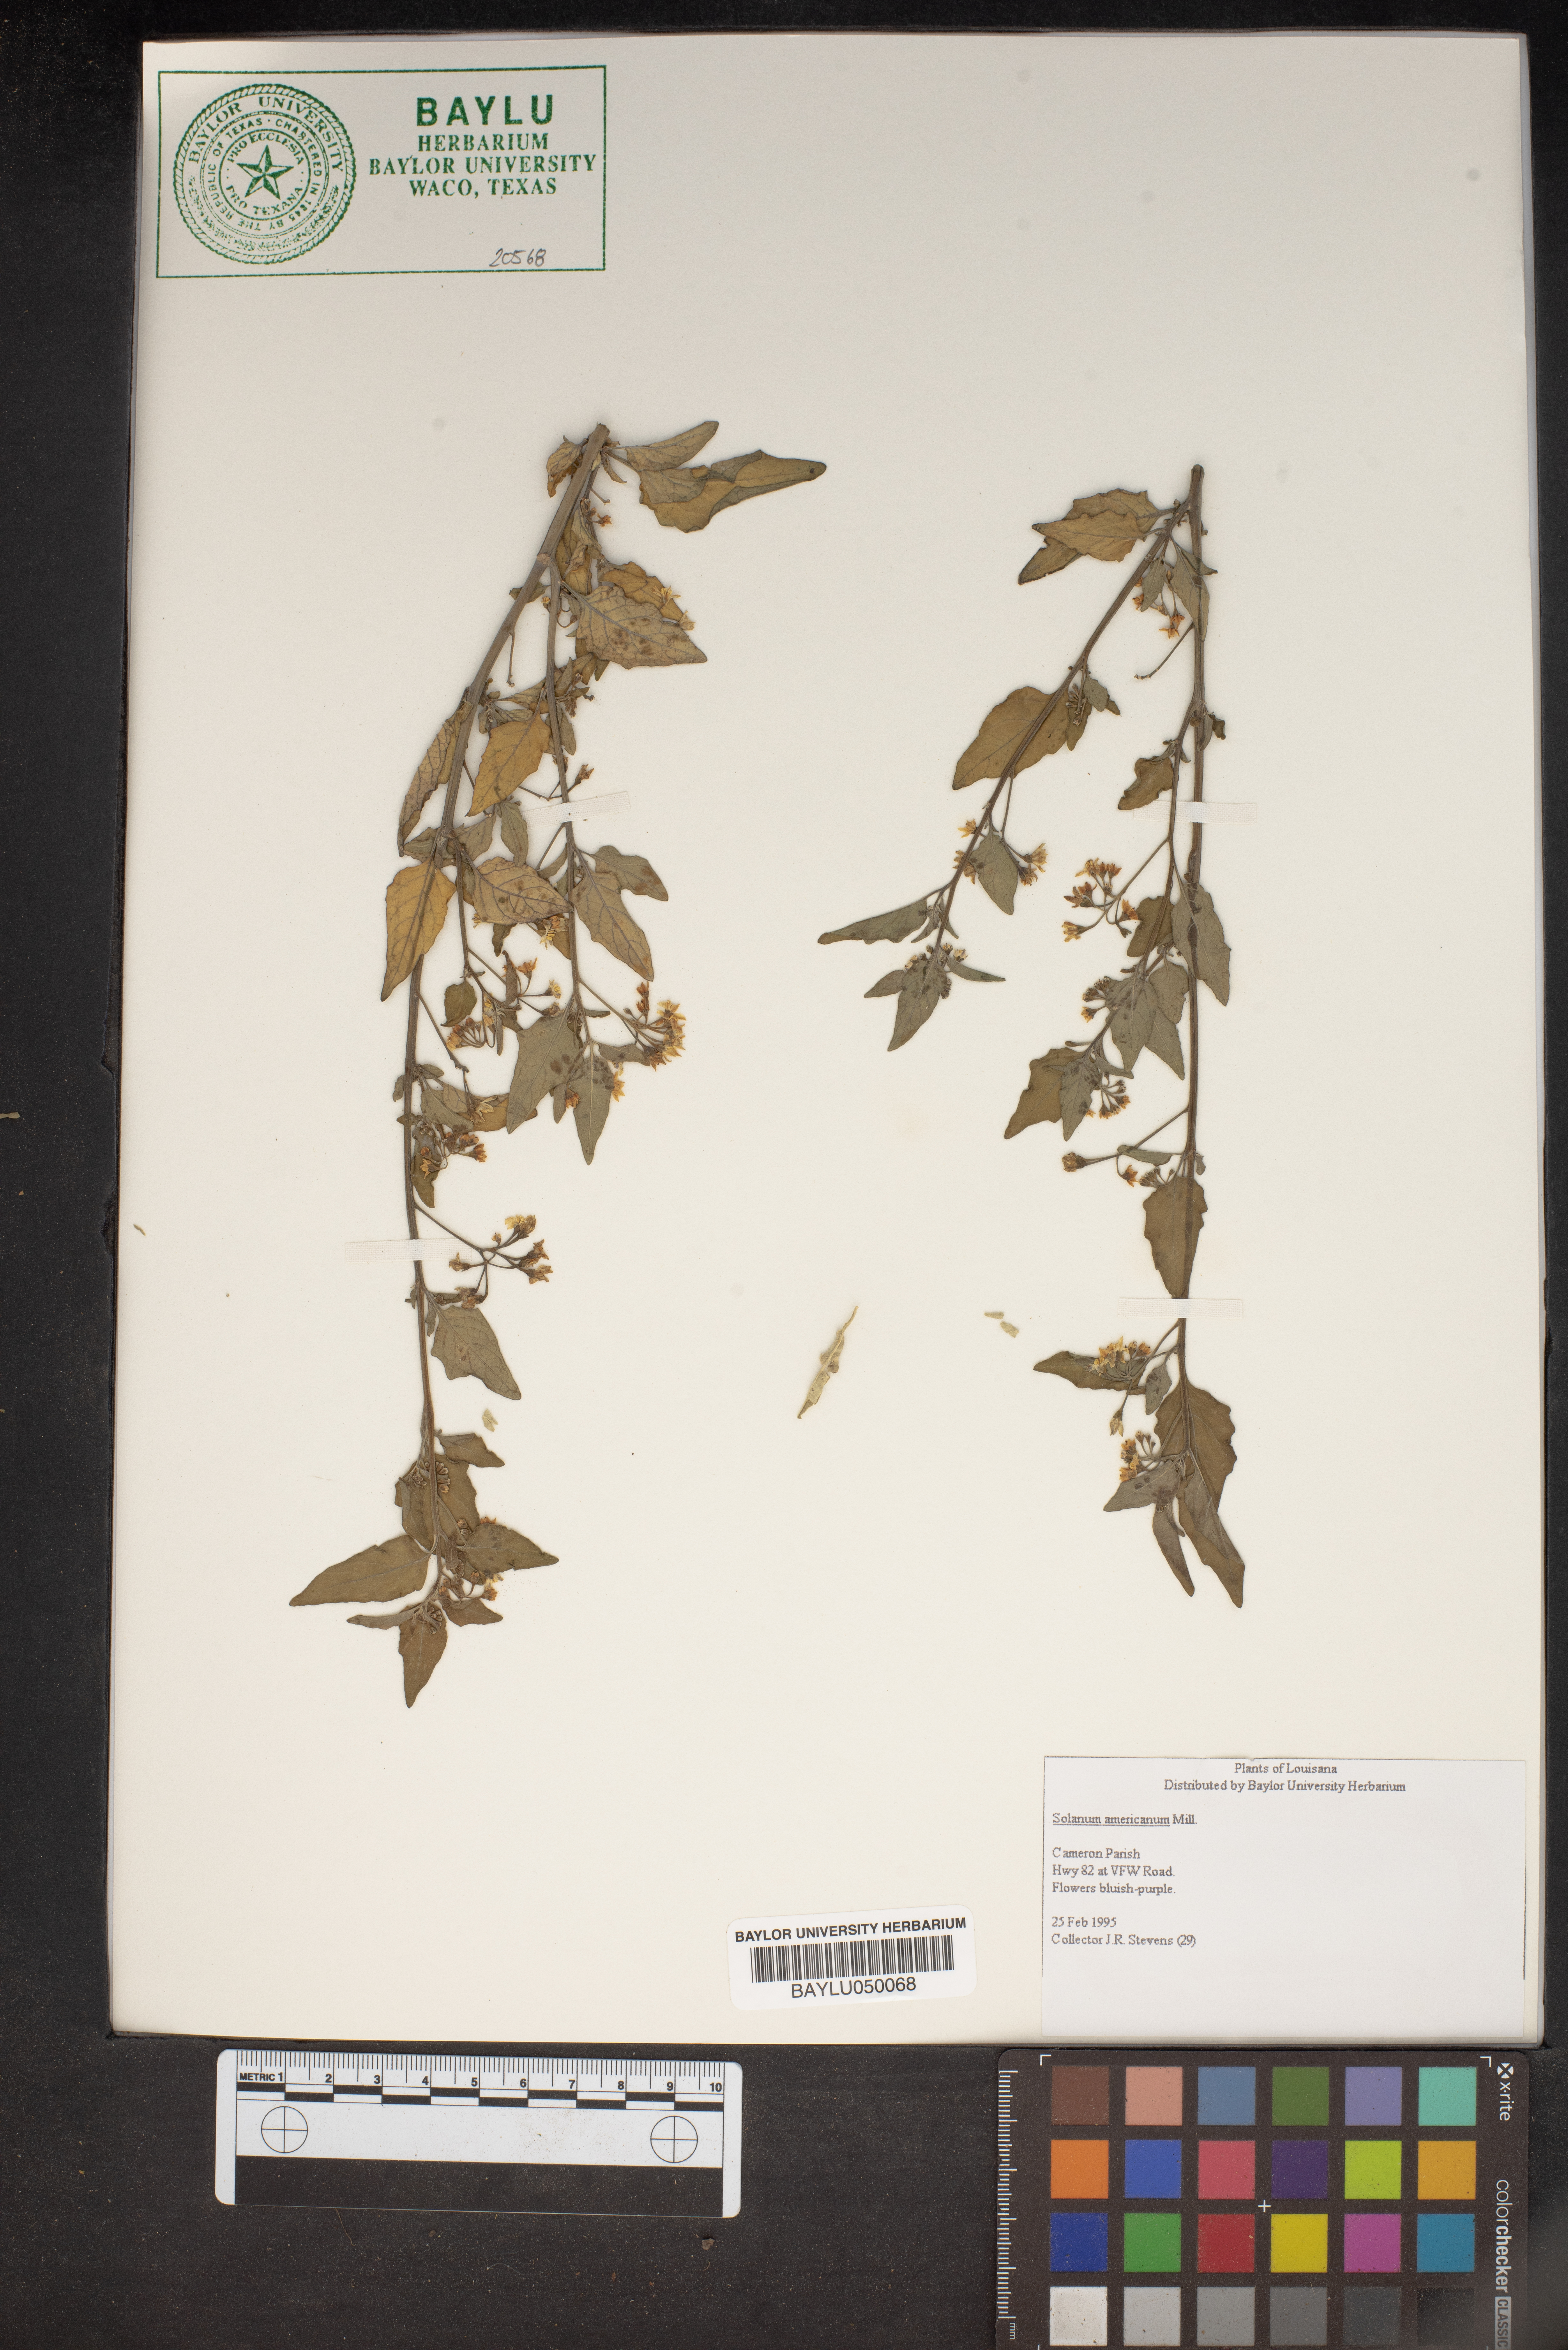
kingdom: Plantae
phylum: Tracheophyta
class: Magnoliopsida
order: Solanales
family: Solanaceae
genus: Solanum
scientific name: Solanum americanum
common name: American black nightshade
